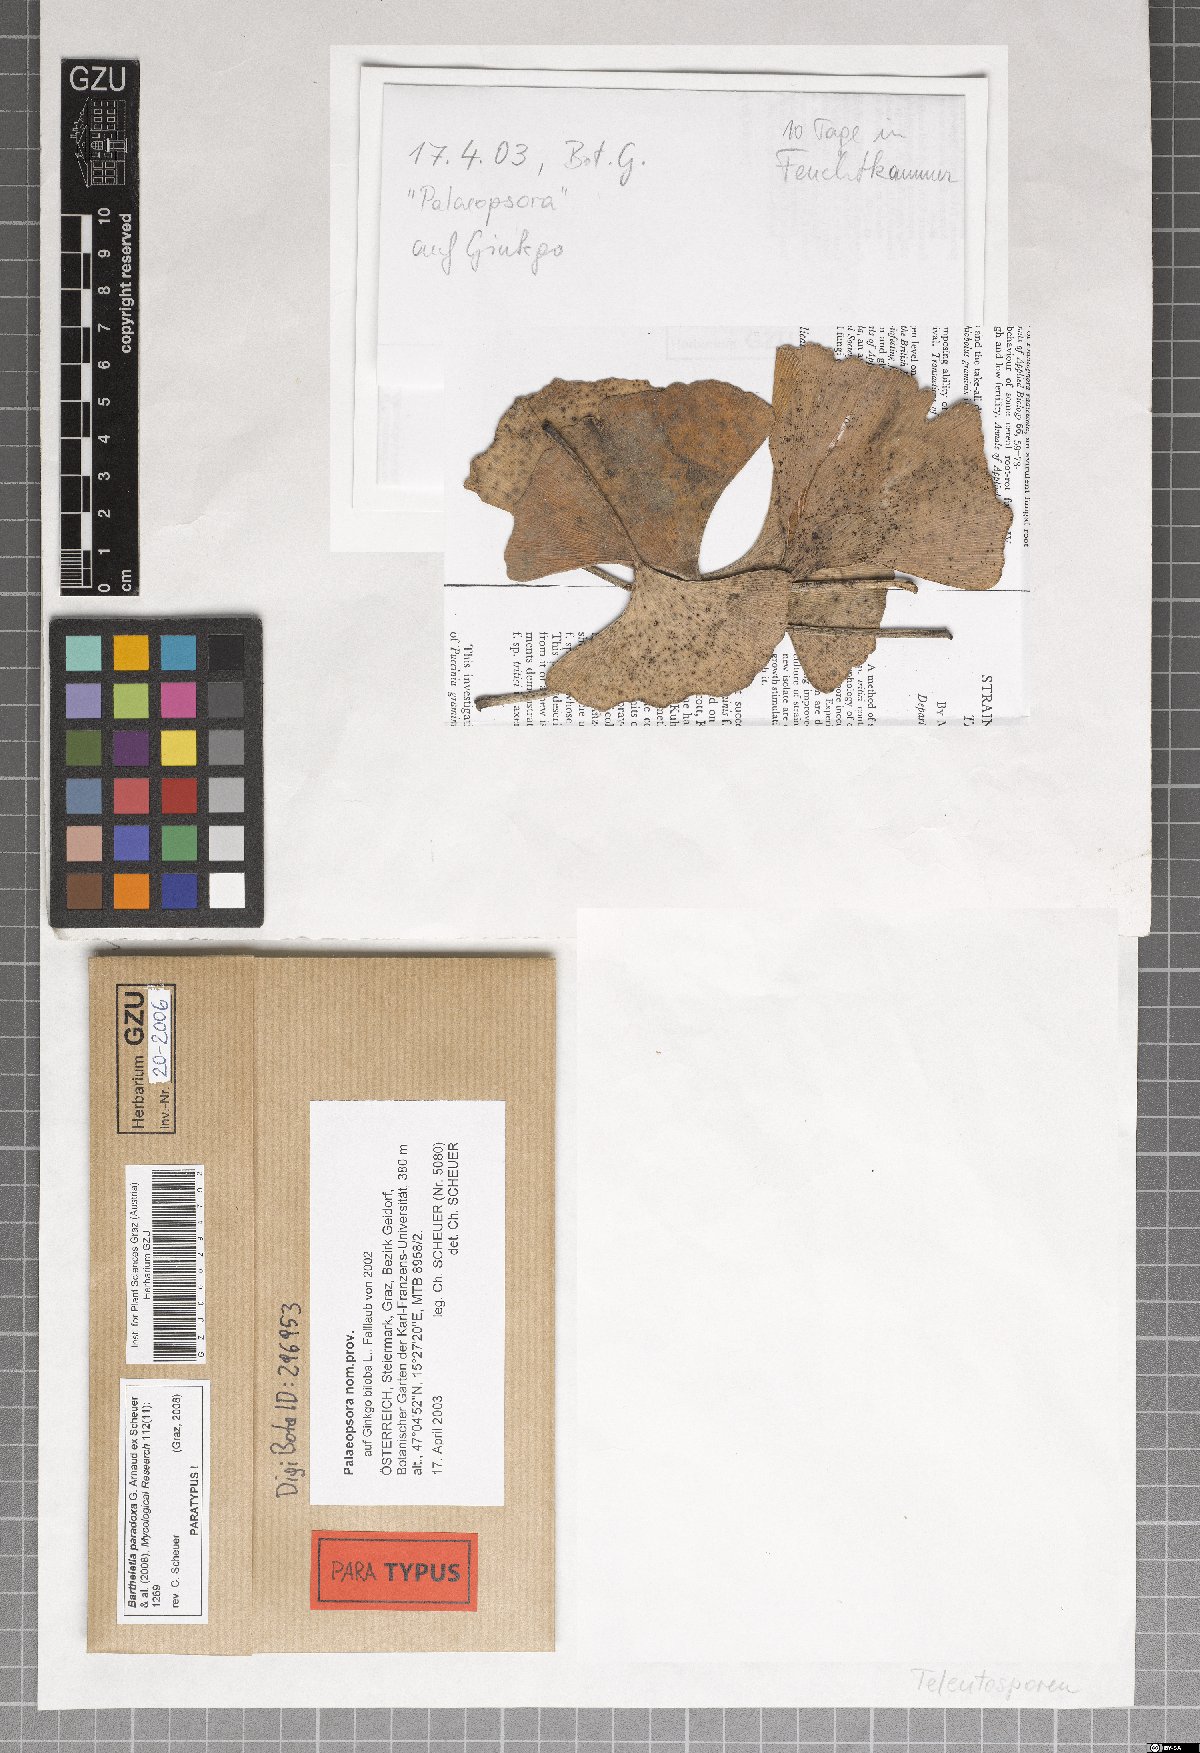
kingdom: Fungi
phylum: Basidiomycota
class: Wallemiomycetes
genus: Bartheletia
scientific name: Bartheletia paradoxa
